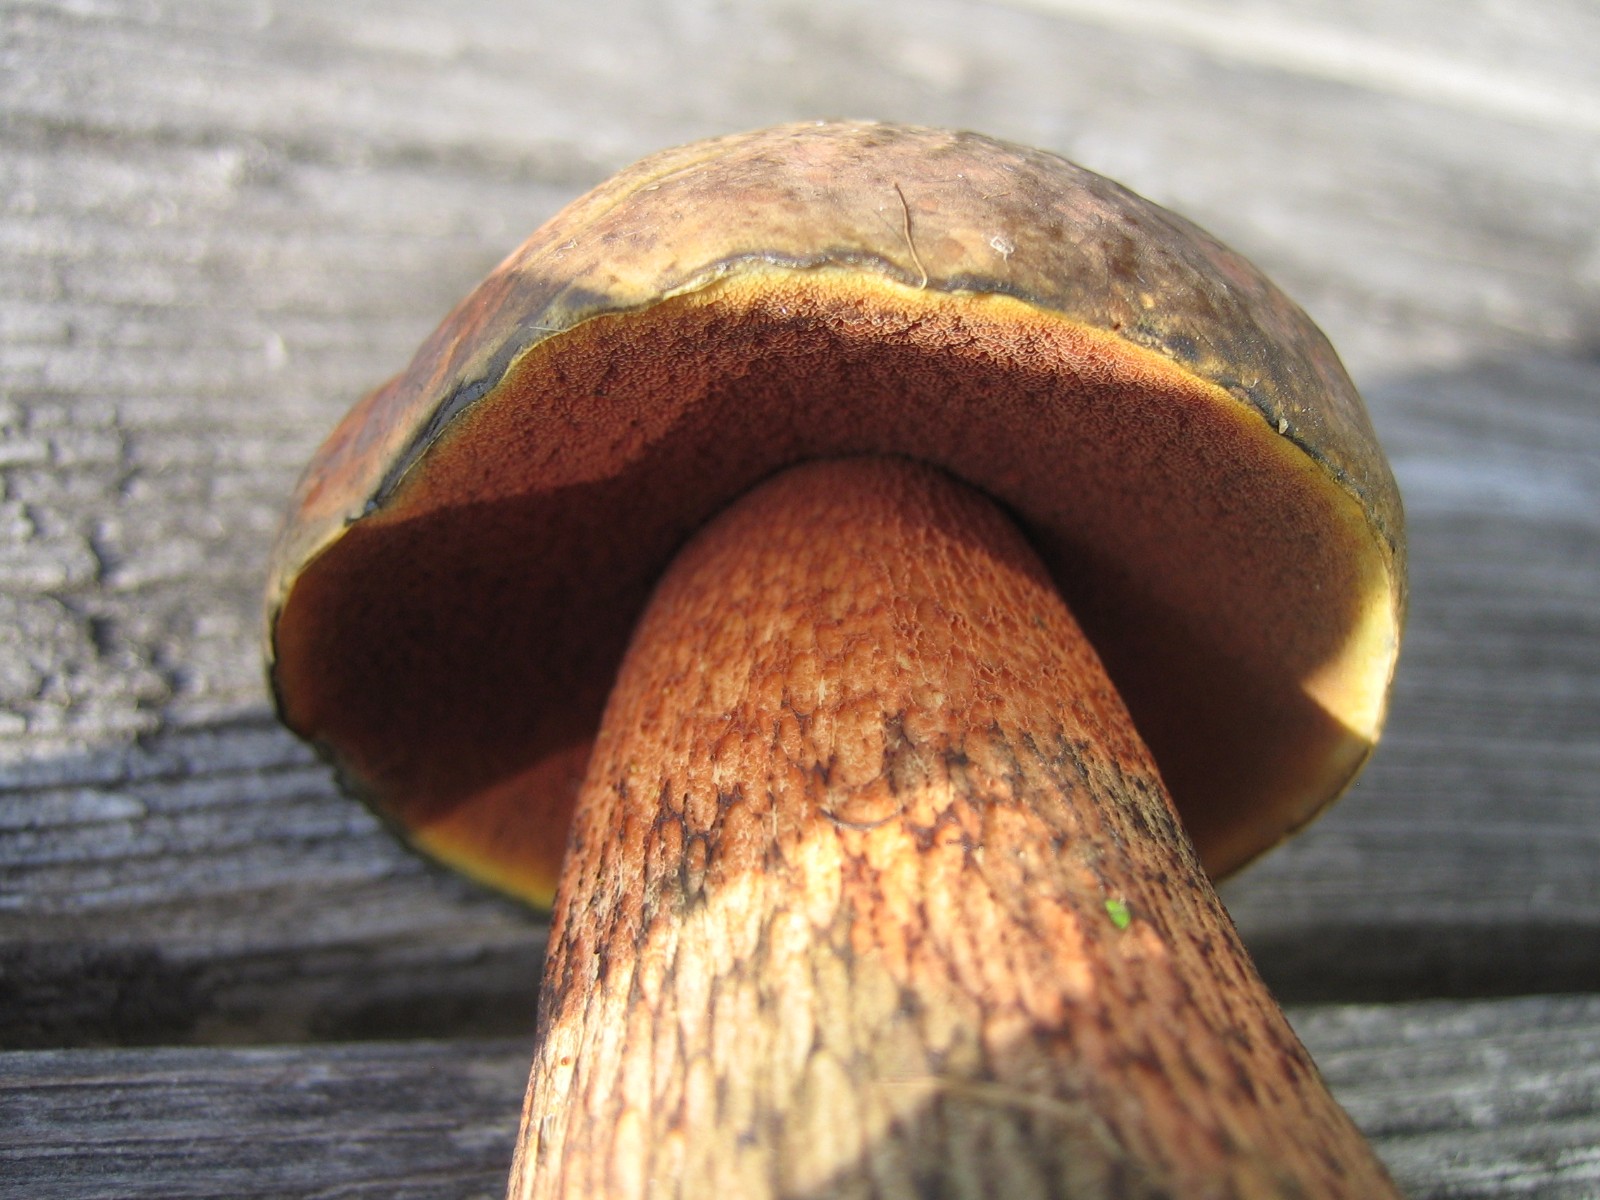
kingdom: Fungi
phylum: Basidiomycota
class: Agaricomycetes
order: Boletales
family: Boletaceae
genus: Suillellus
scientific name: Suillellus luridus
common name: netstokket indigorørhat
